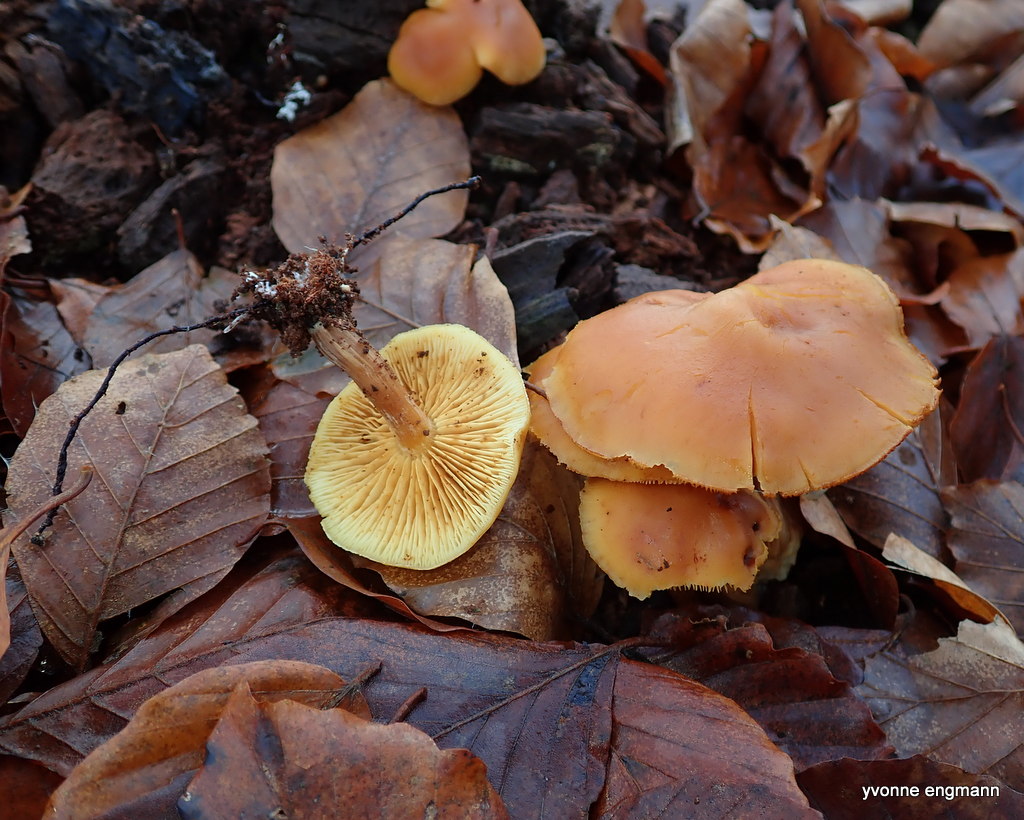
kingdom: Fungi
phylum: Basidiomycota
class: Agaricomycetes
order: Agaricales
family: Hymenogastraceae
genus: Gymnopilus
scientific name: Gymnopilus penetrans
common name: plettet flammehat
